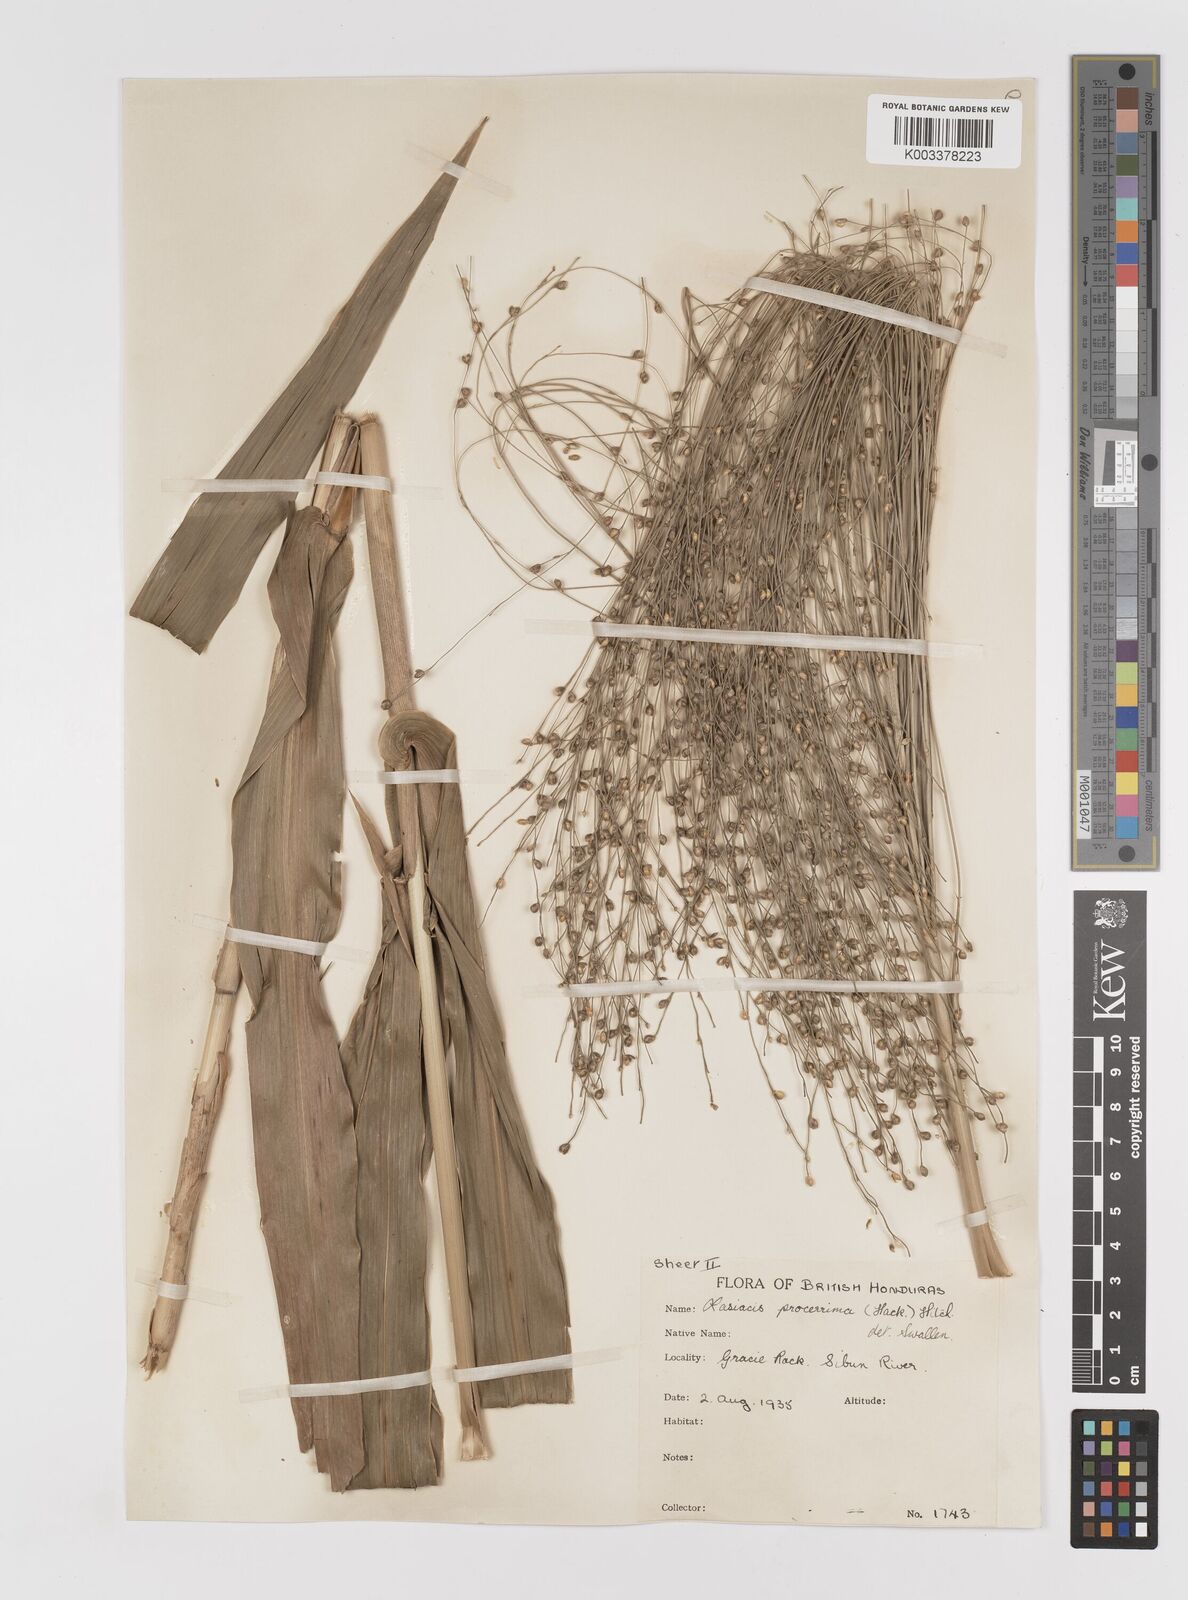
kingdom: Plantae
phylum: Tracheophyta
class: Liliopsida
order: Poales
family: Poaceae
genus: Lasiacis
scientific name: Lasiacis procerrima
